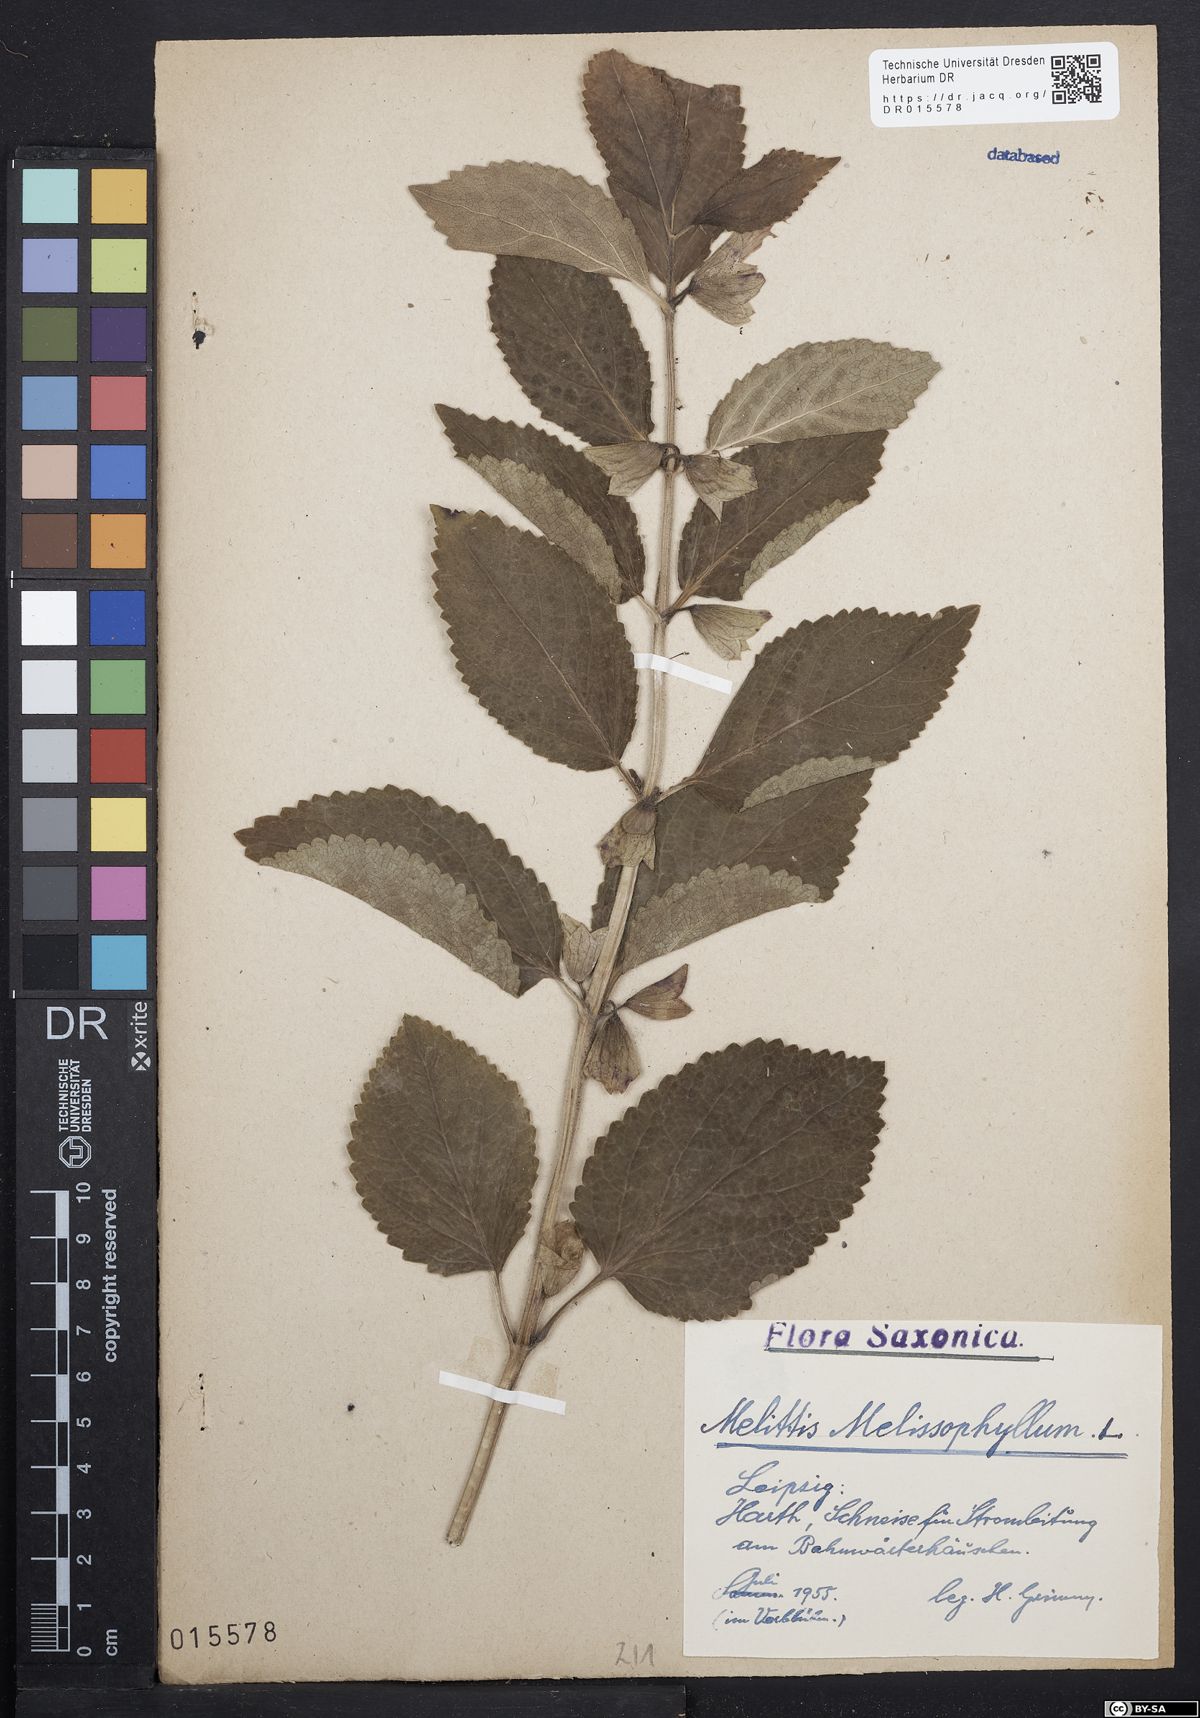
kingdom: Plantae
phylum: Tracheophyta
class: Magnoliopsida
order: Lamiales
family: Lamiaceae
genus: Melittis
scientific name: Melittis melissophyllum
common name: Bastard balm
